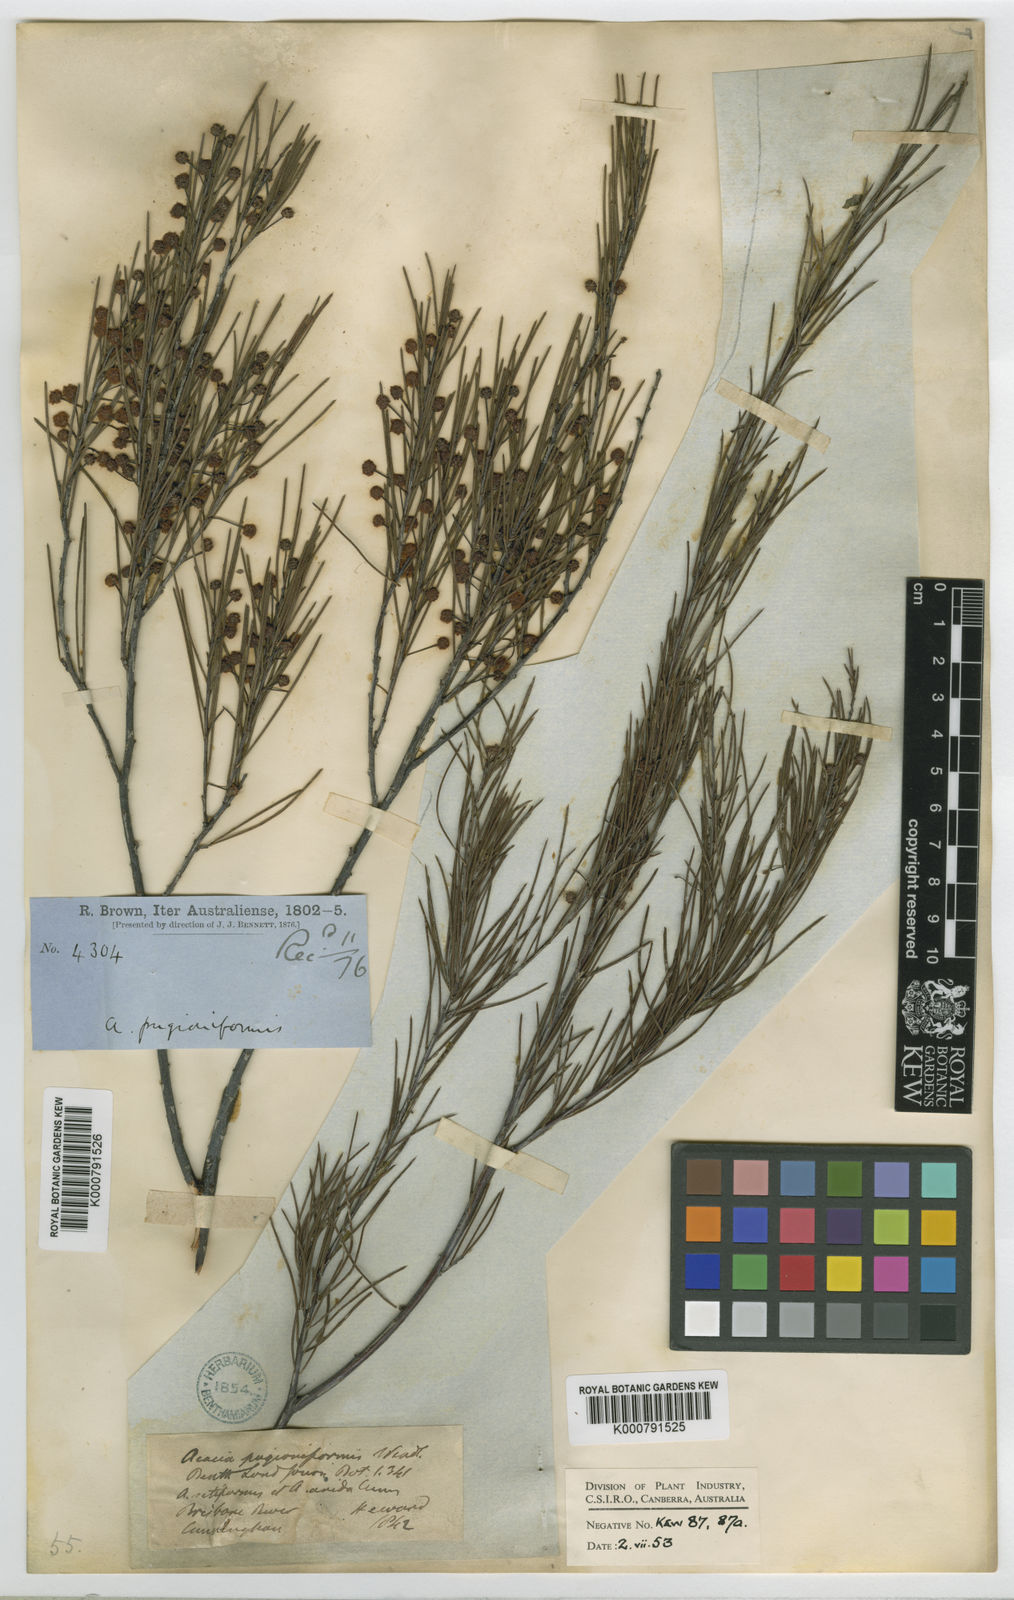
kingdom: Plantae
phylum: Tracheophyta
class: Magnoliopsida
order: Fabales
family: Fabaceae
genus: Acacia
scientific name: Acacia
